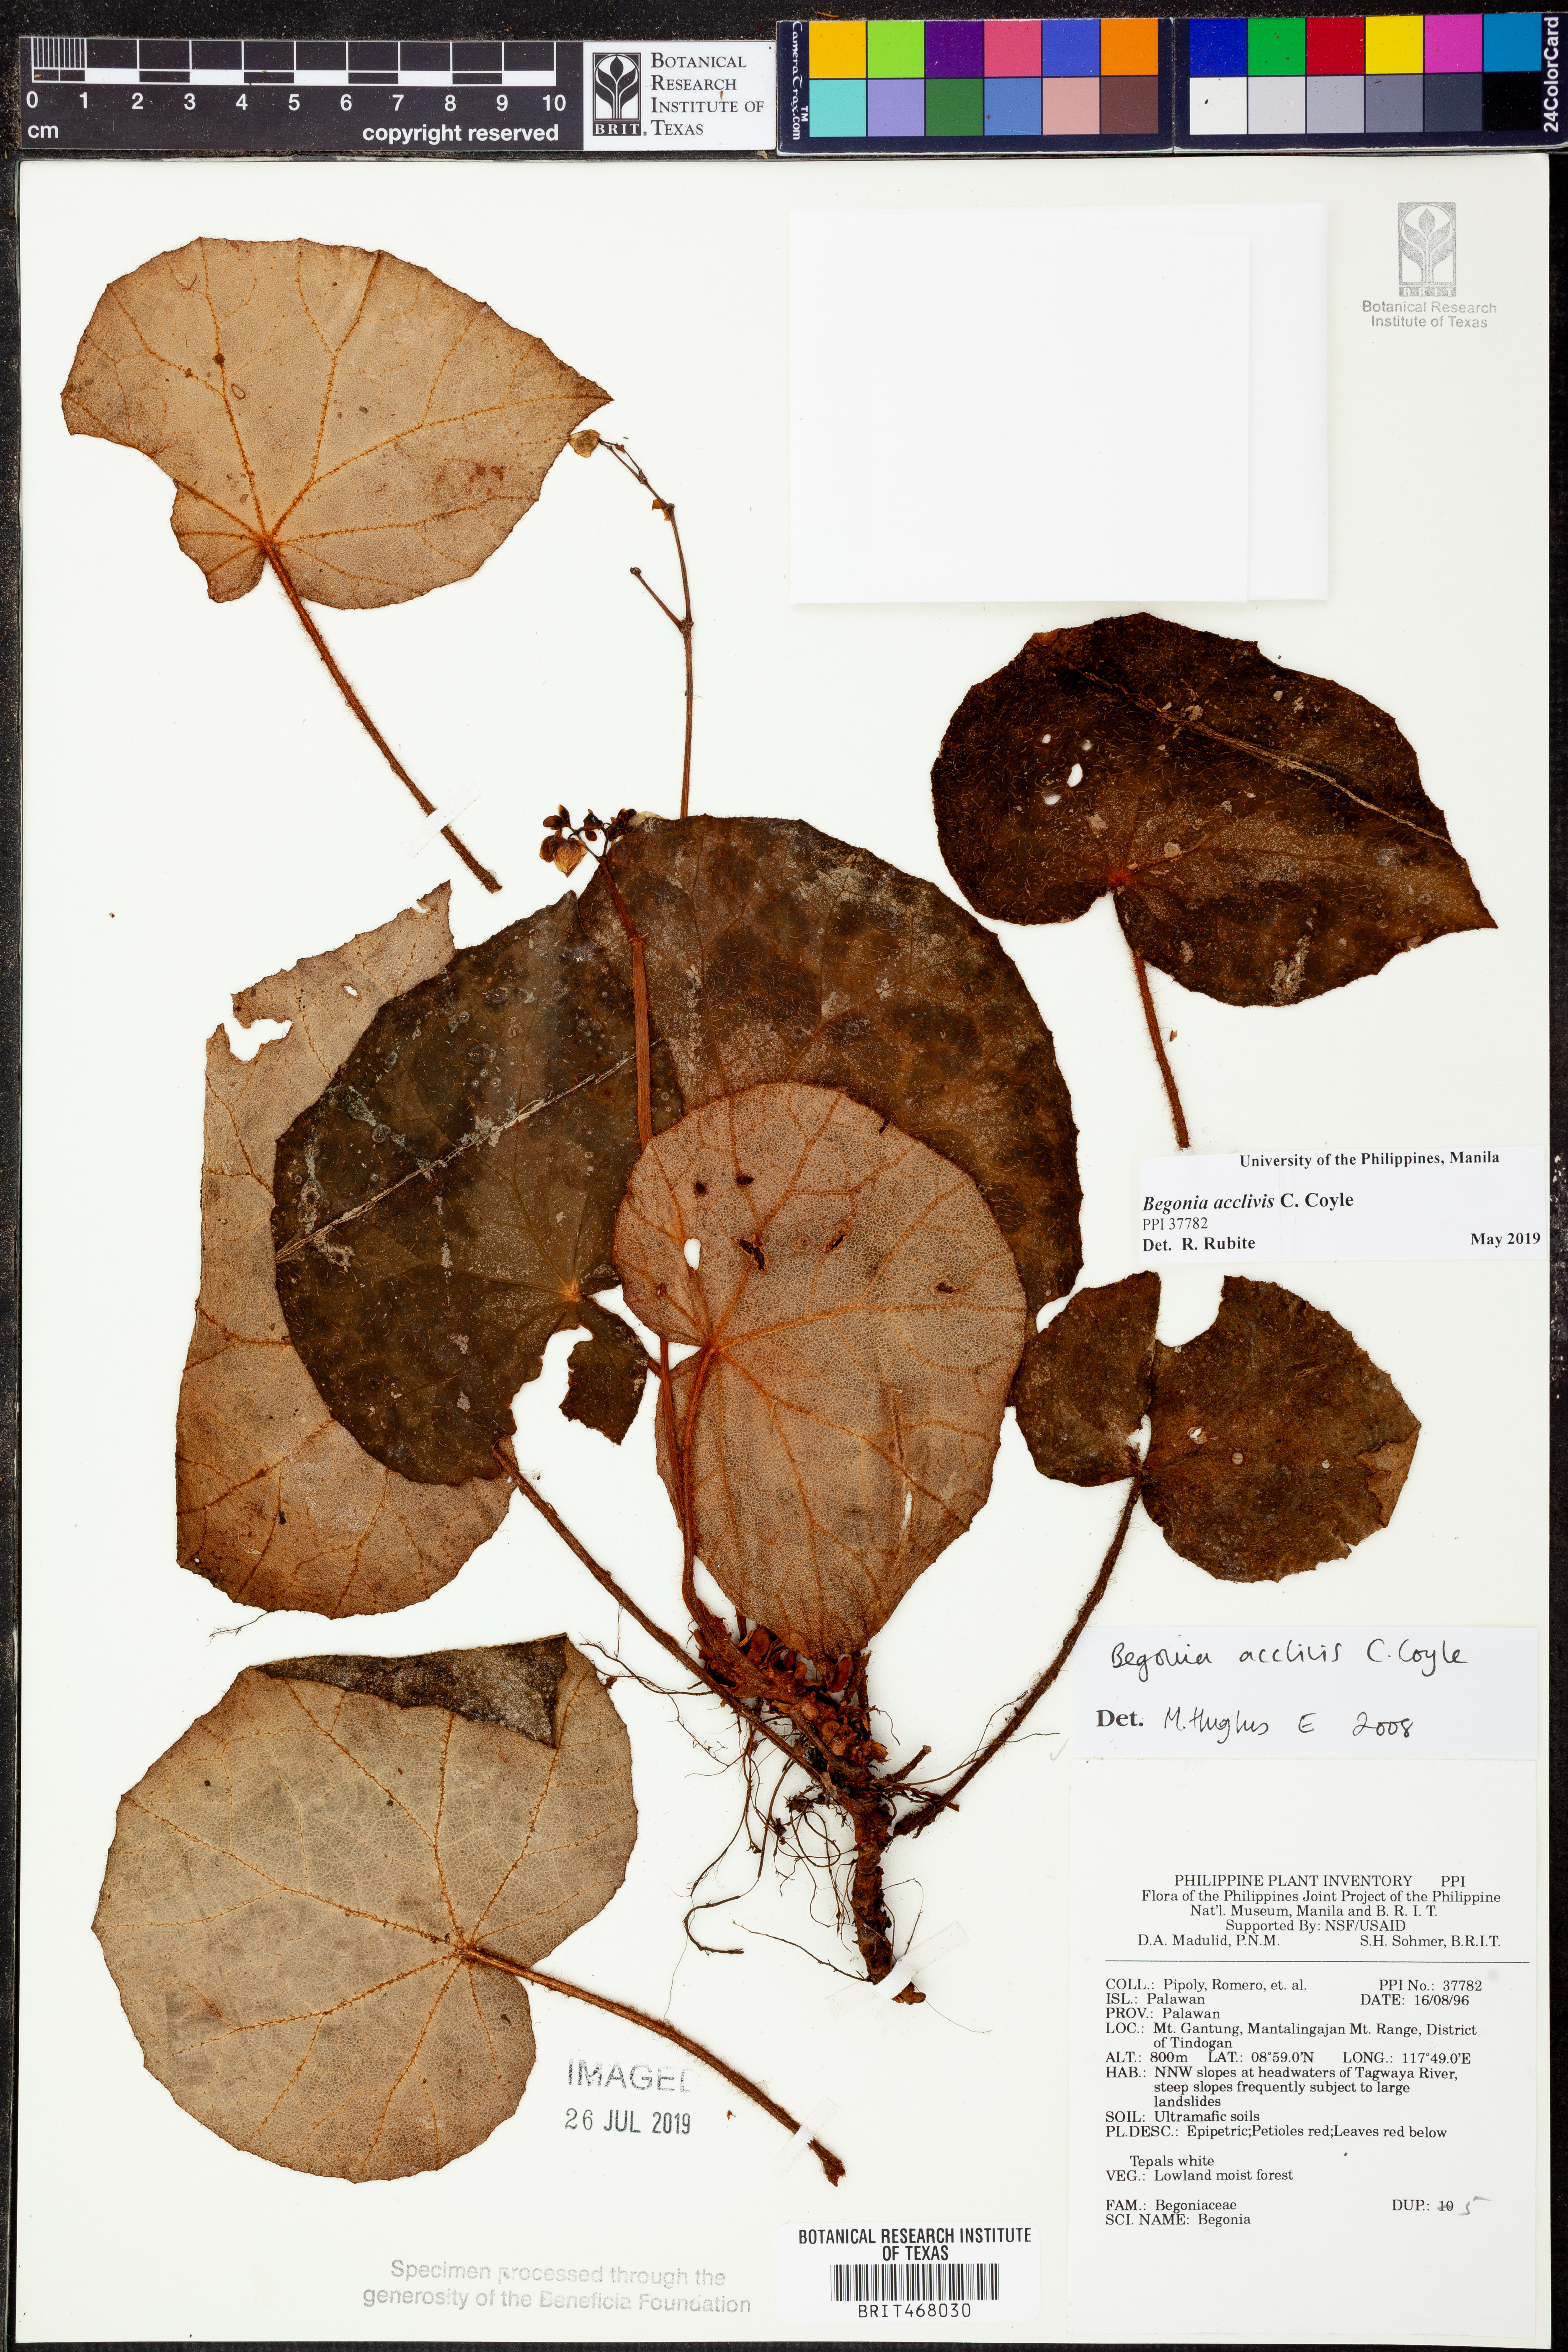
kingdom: Plantae
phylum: Tracheophyta
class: Magnoliopsida
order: Cucurbitales
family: Begoniaceae
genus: Begonia
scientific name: Begonia acclivis
